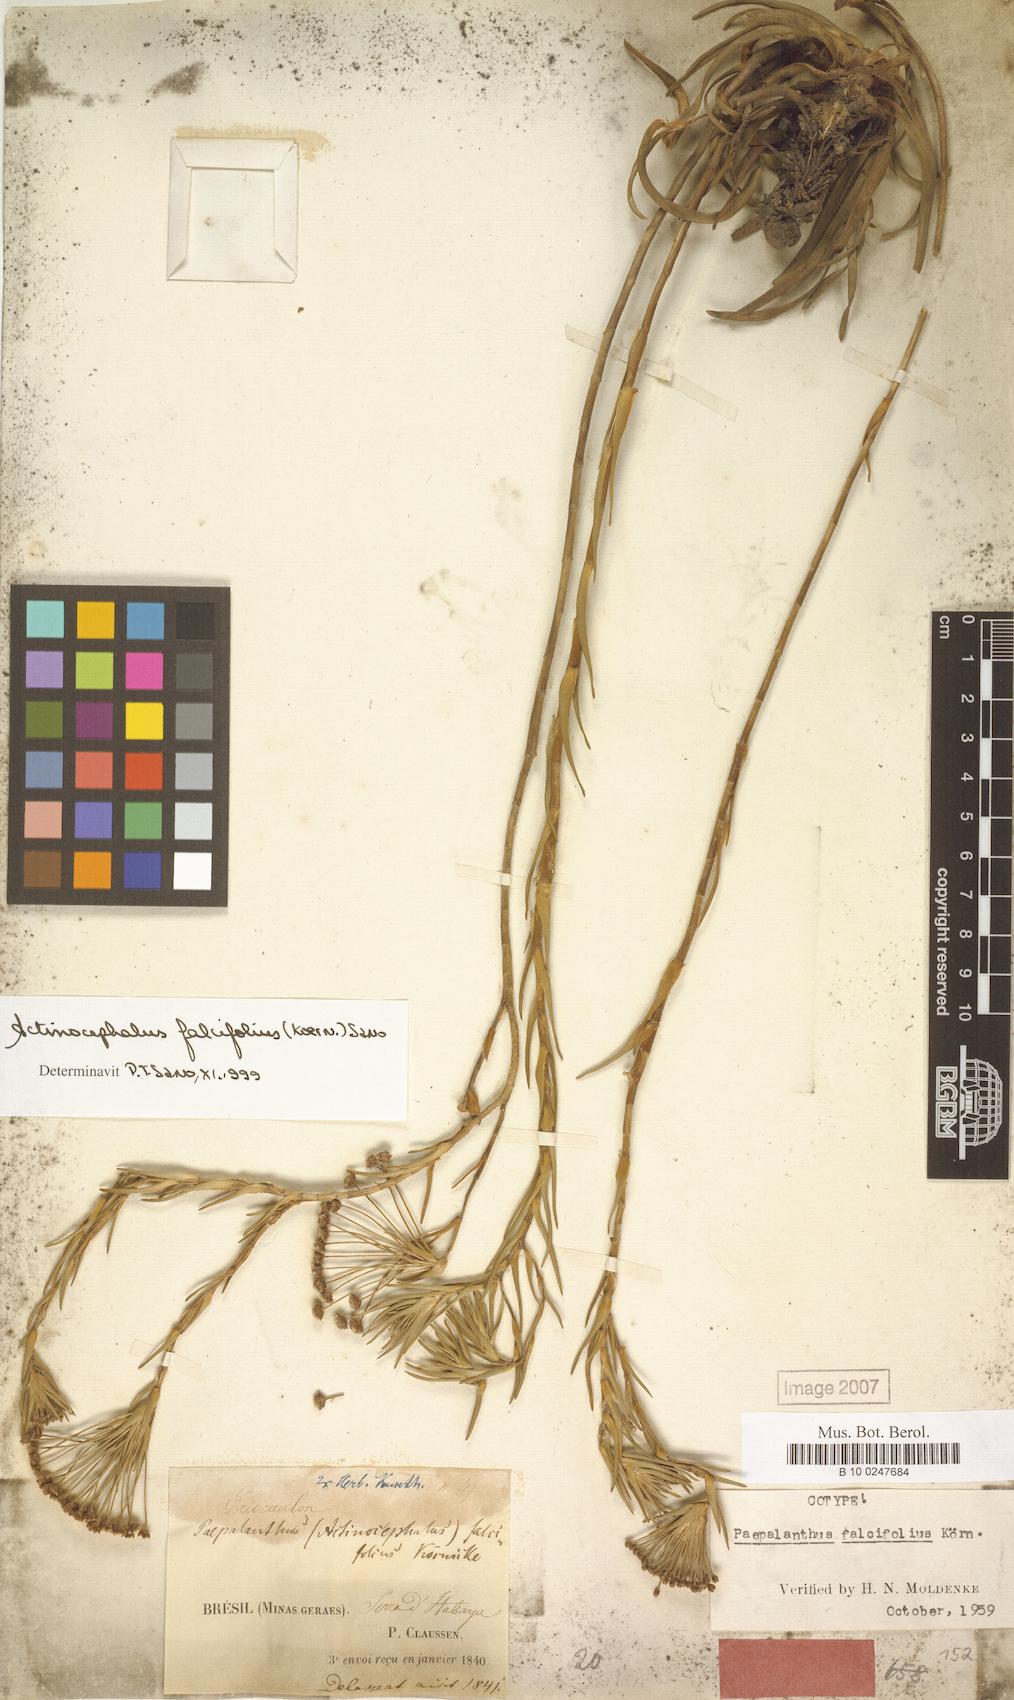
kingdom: Plantae
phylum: Tracheophyta
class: Liliopsida
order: Poales
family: Eriocaulaceae
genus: Paepalanthus
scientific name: Paepalanthus falcifolius
